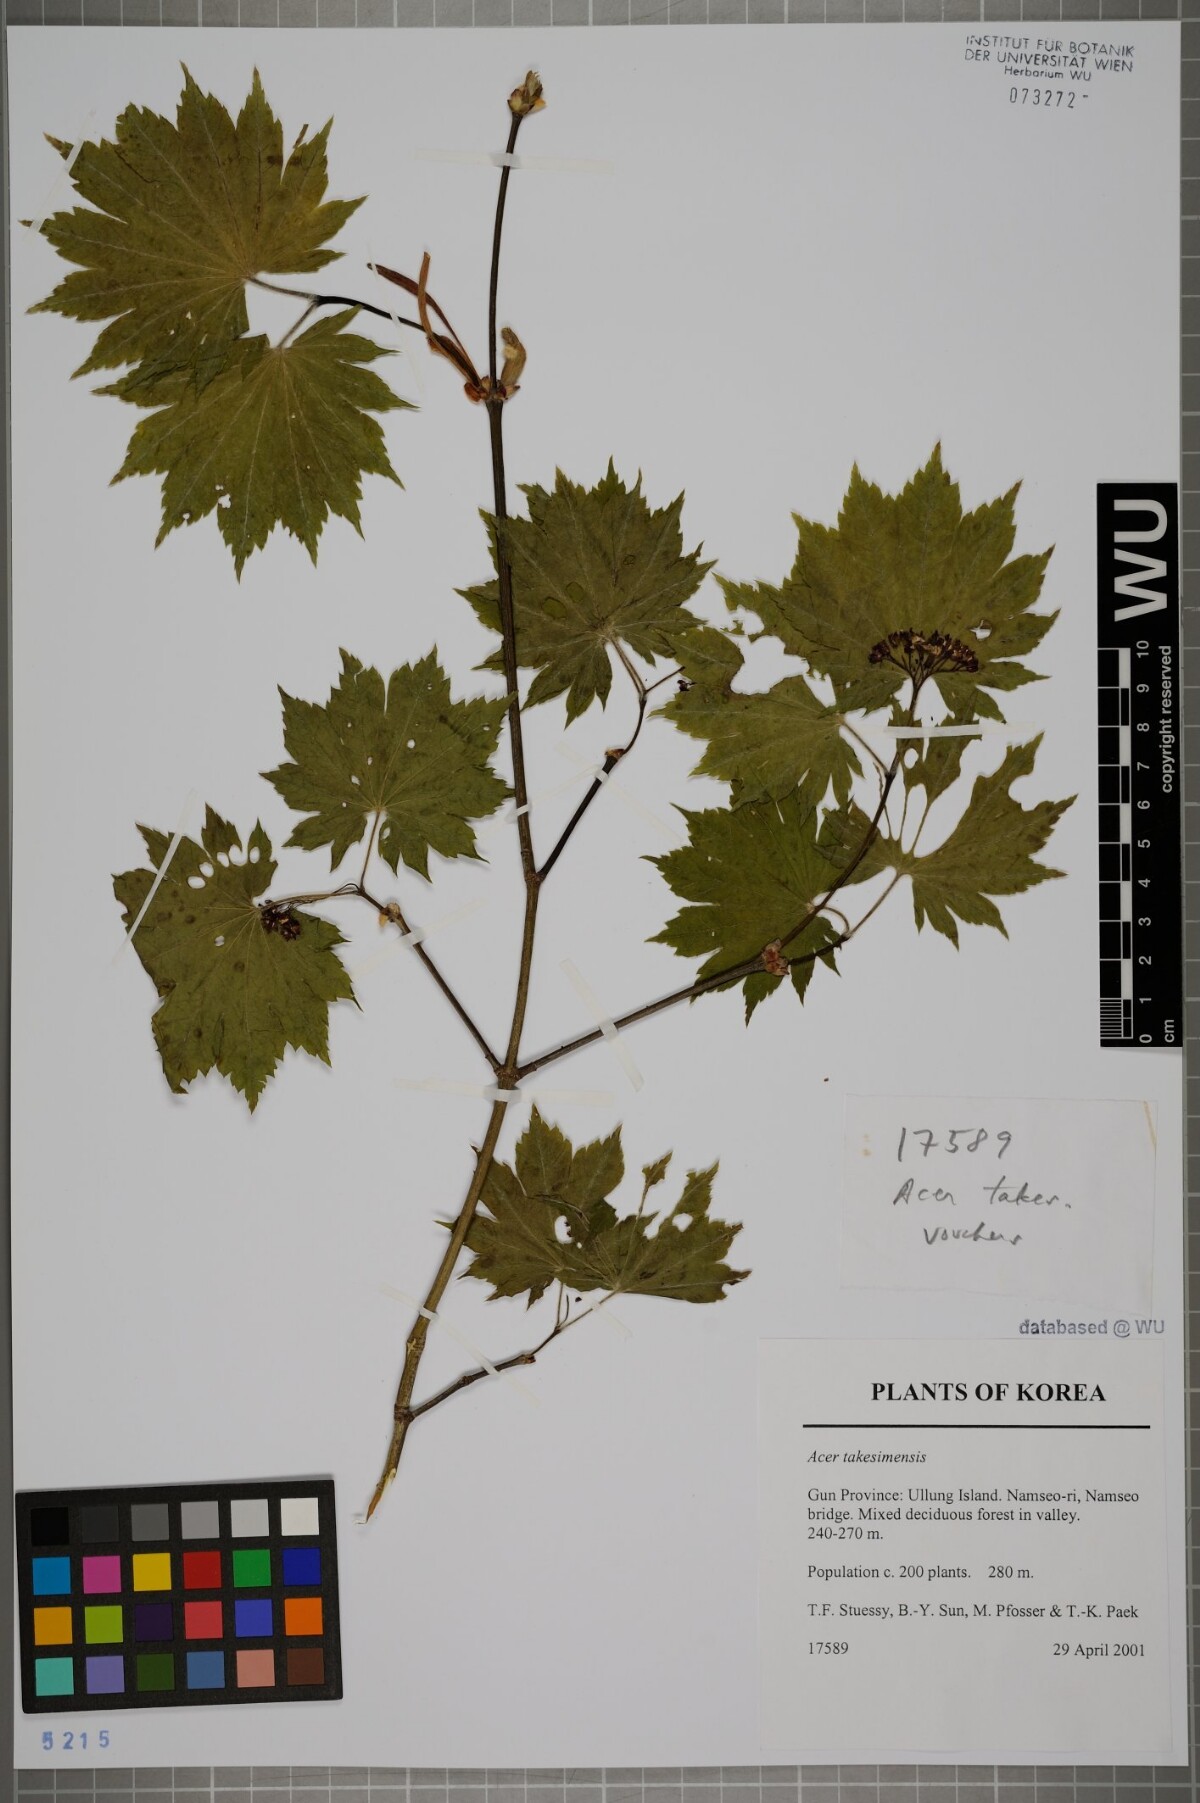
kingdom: Plantae
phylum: Tracheophyta
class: Magnoliopsida
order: Sapindales
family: Sapindaceae
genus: Acer
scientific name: Acer pseudosieboldianum
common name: Korean maple
